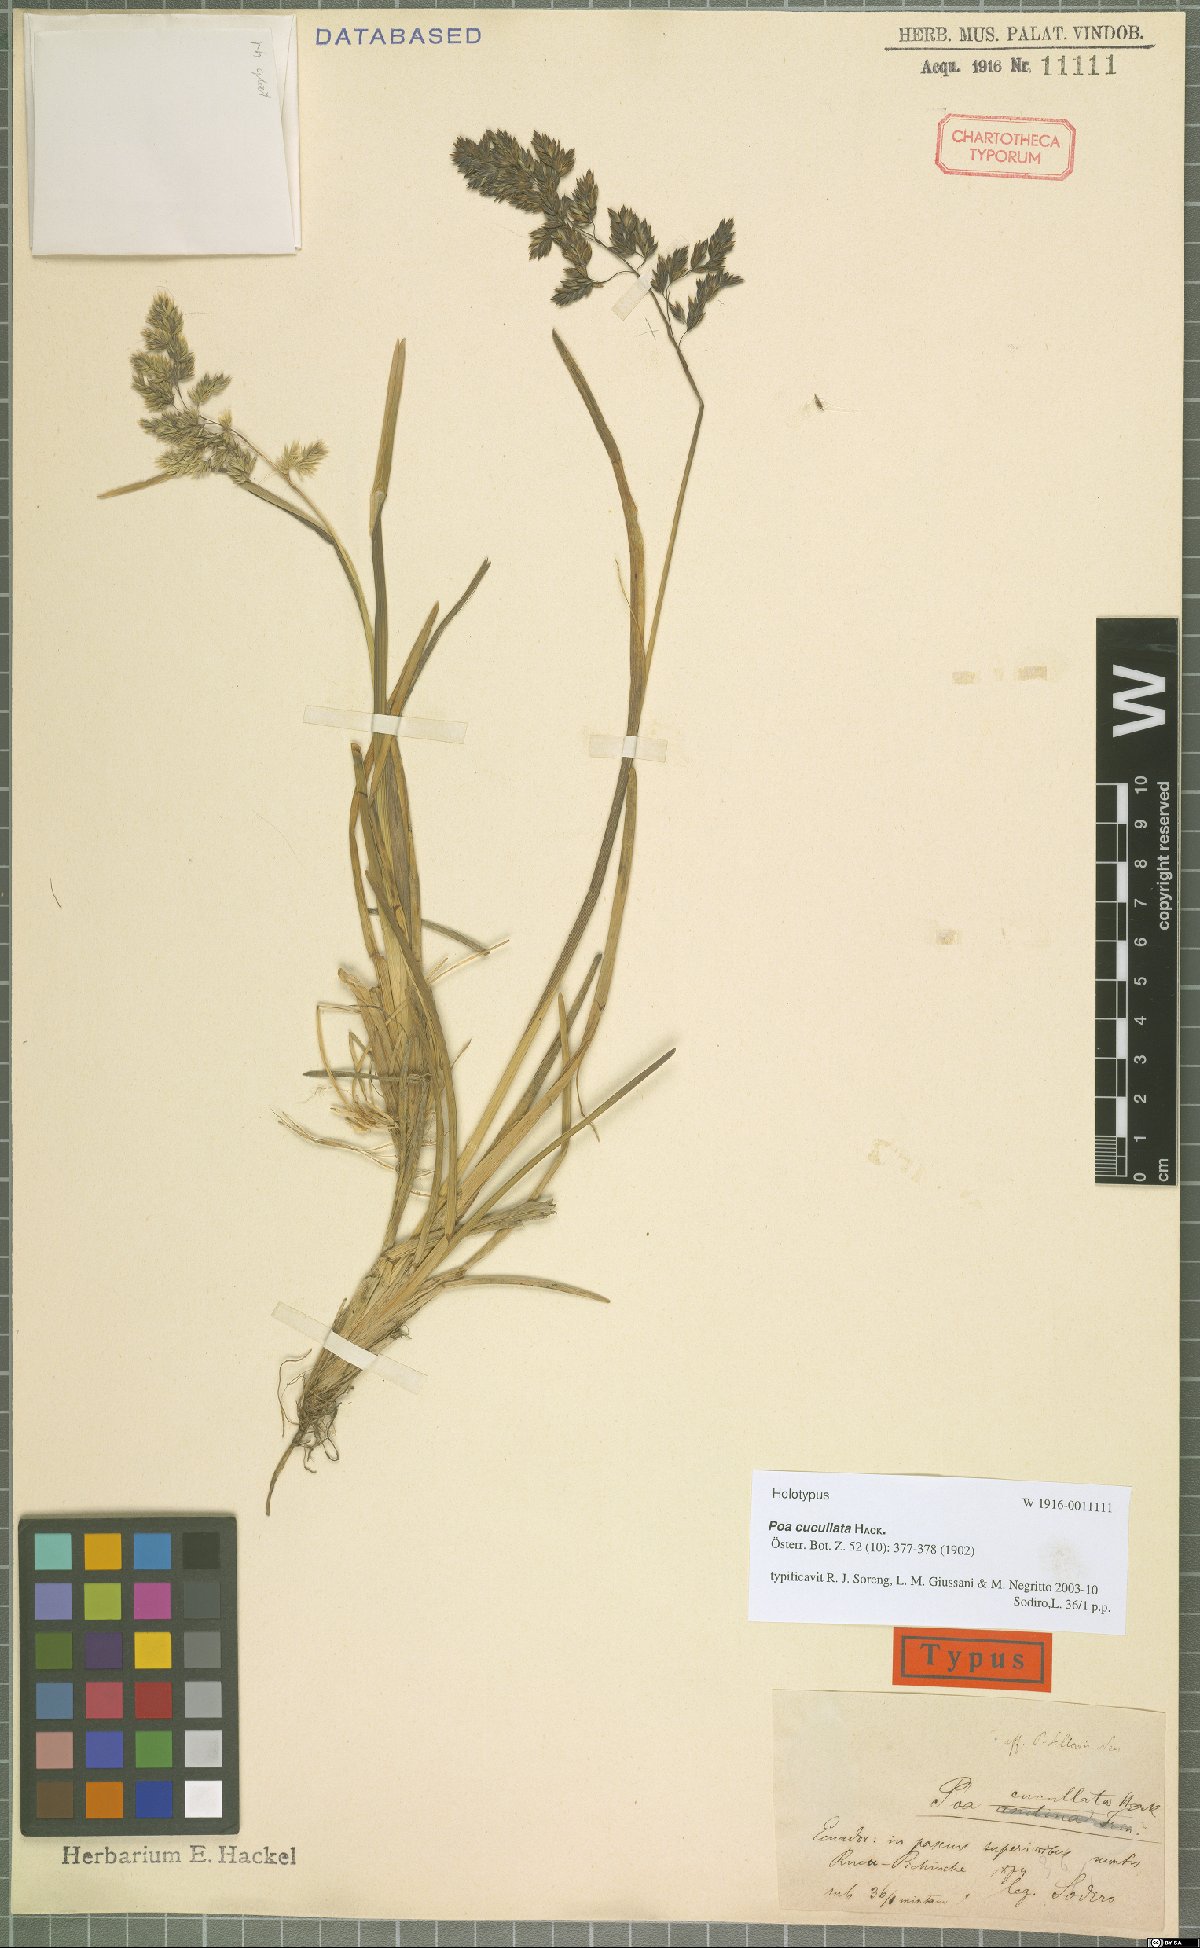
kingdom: Plantae
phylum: Tracheophyta
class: Liliopsida
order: Poales
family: Poaceae
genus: Poa
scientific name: Poa cucullata
